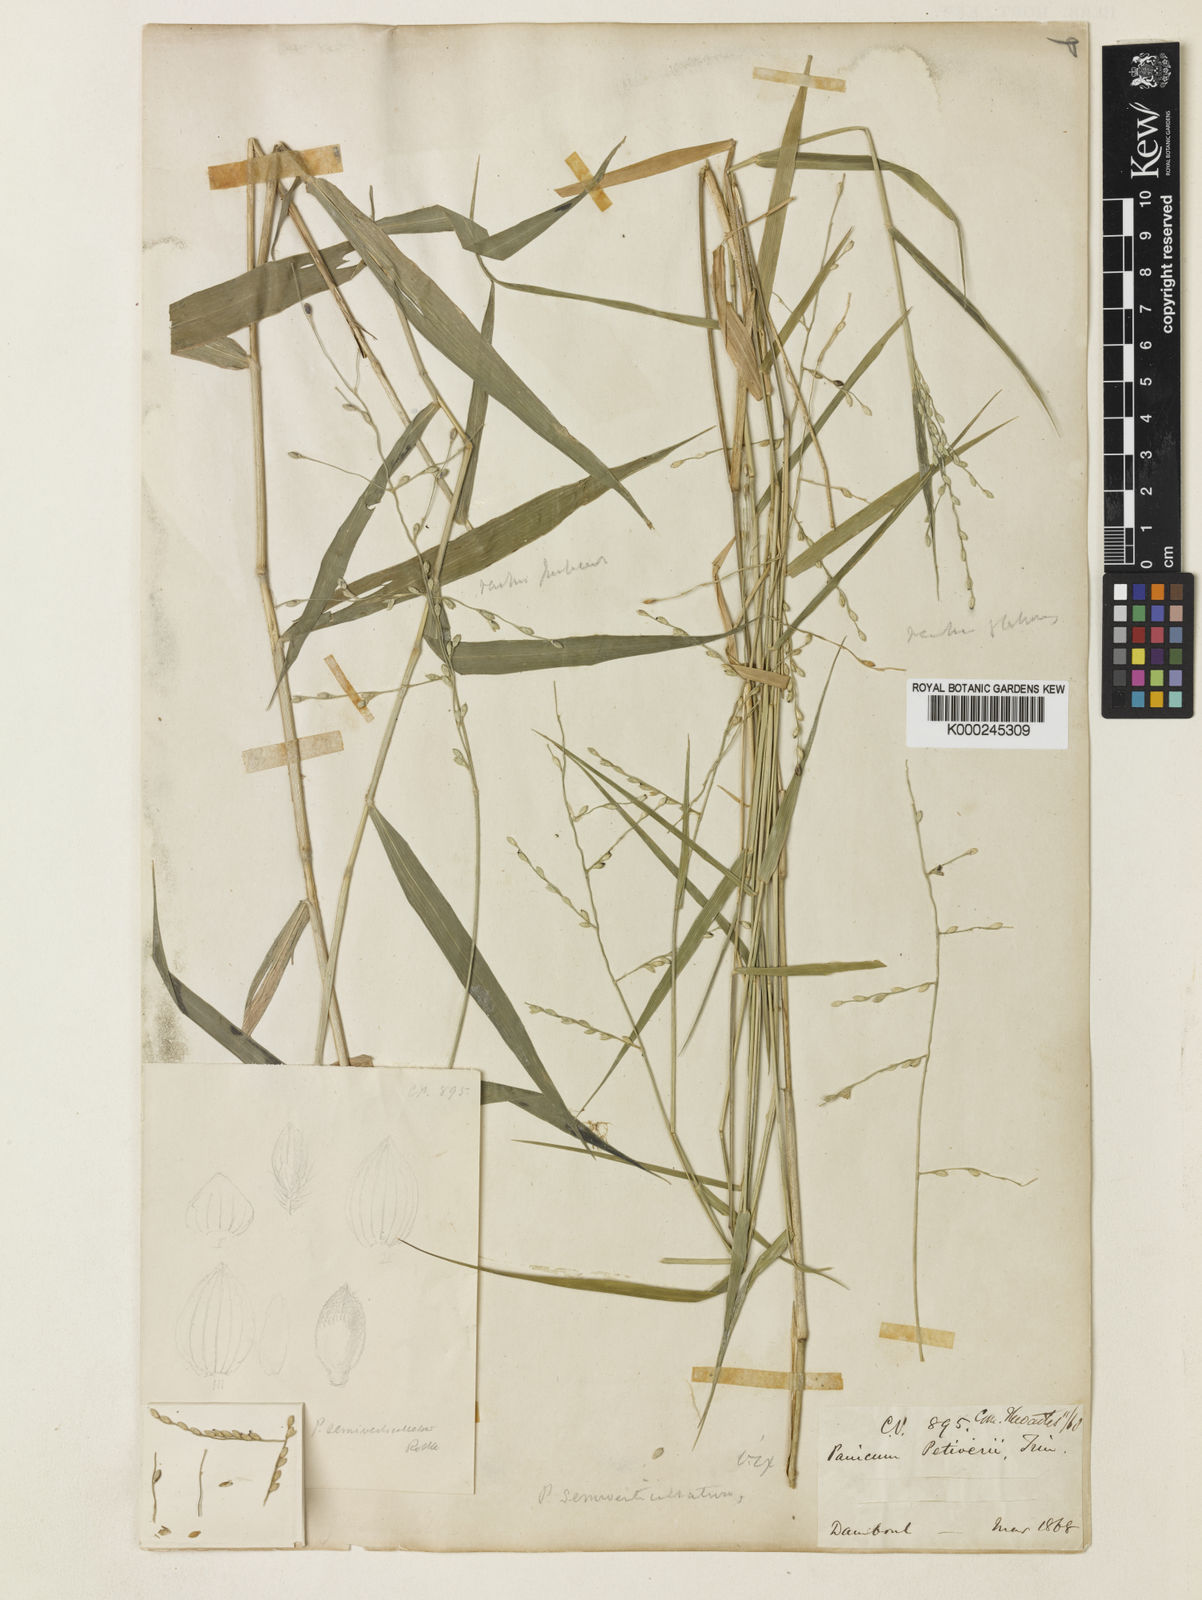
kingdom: Plantae
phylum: Tracheophyta
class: Liliopsida
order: Poales
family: Poaceae
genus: Urochloa
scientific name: Urochloa Brachiaria semiverticillata
